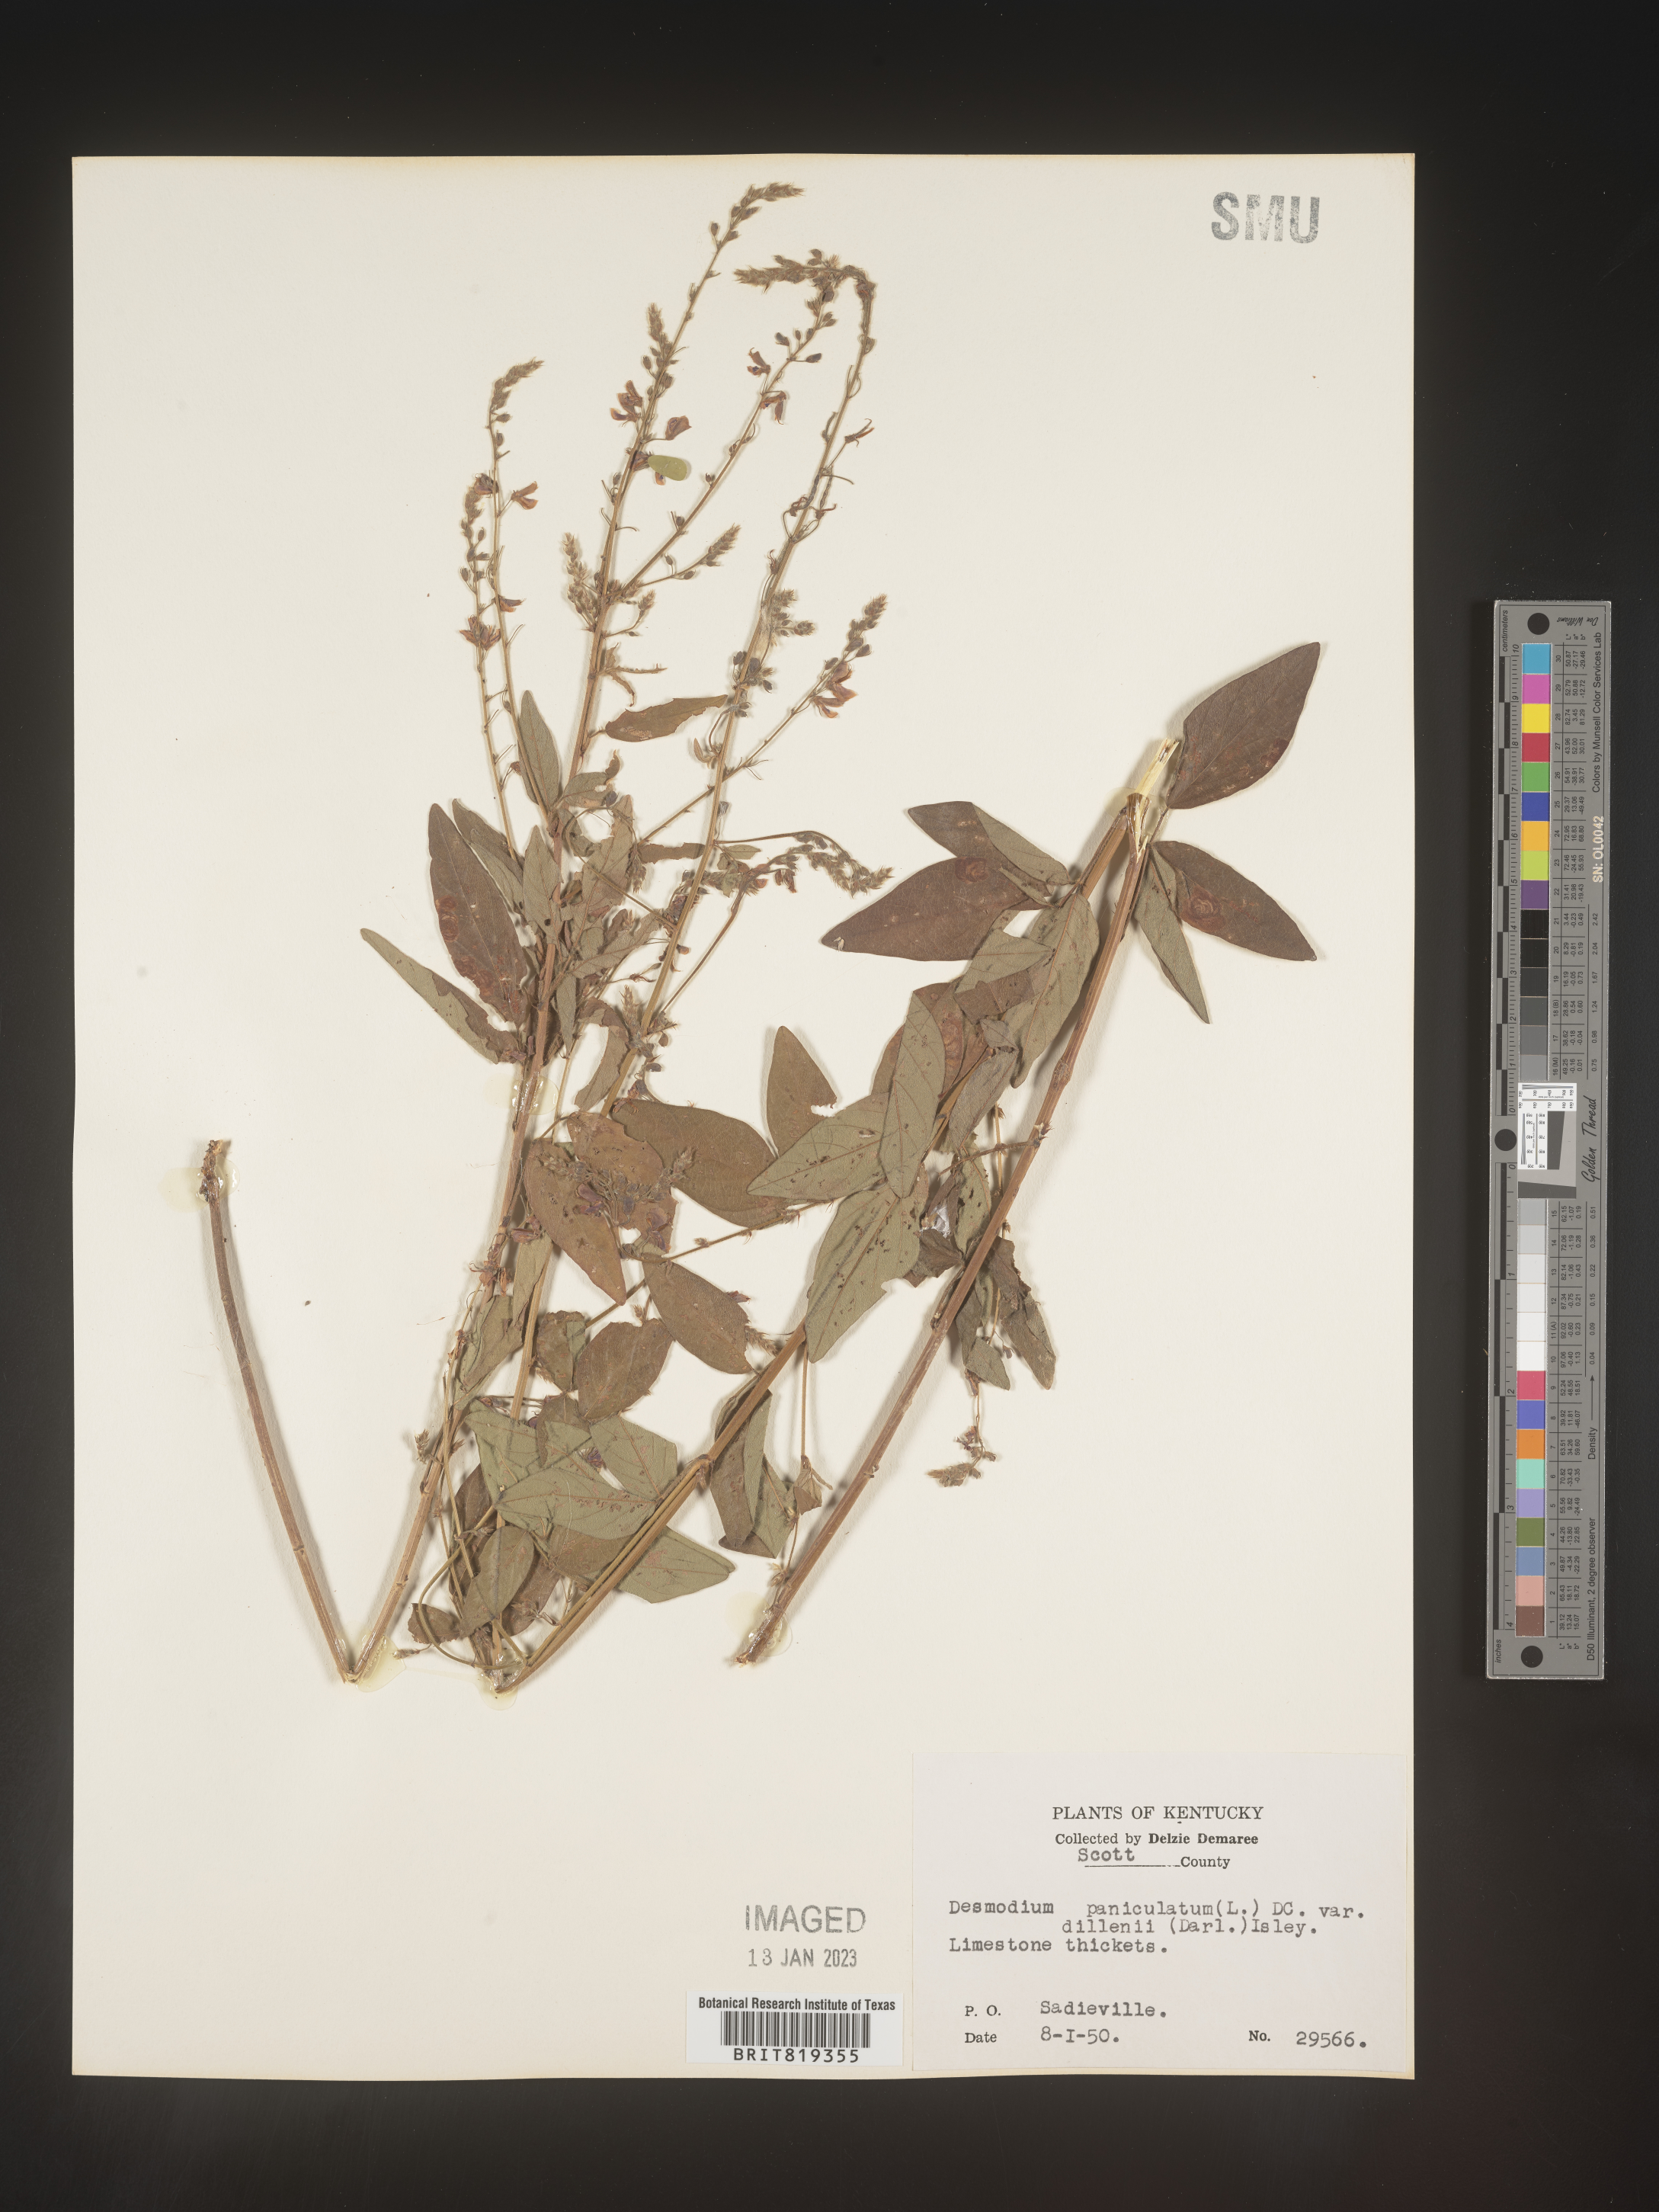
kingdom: Plantae
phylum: Tracheophyta
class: Magnoliopsida
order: Fabales
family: Fabaceae
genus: Desmodium
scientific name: Desmodium paniculatum
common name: Panicled tick-clover
